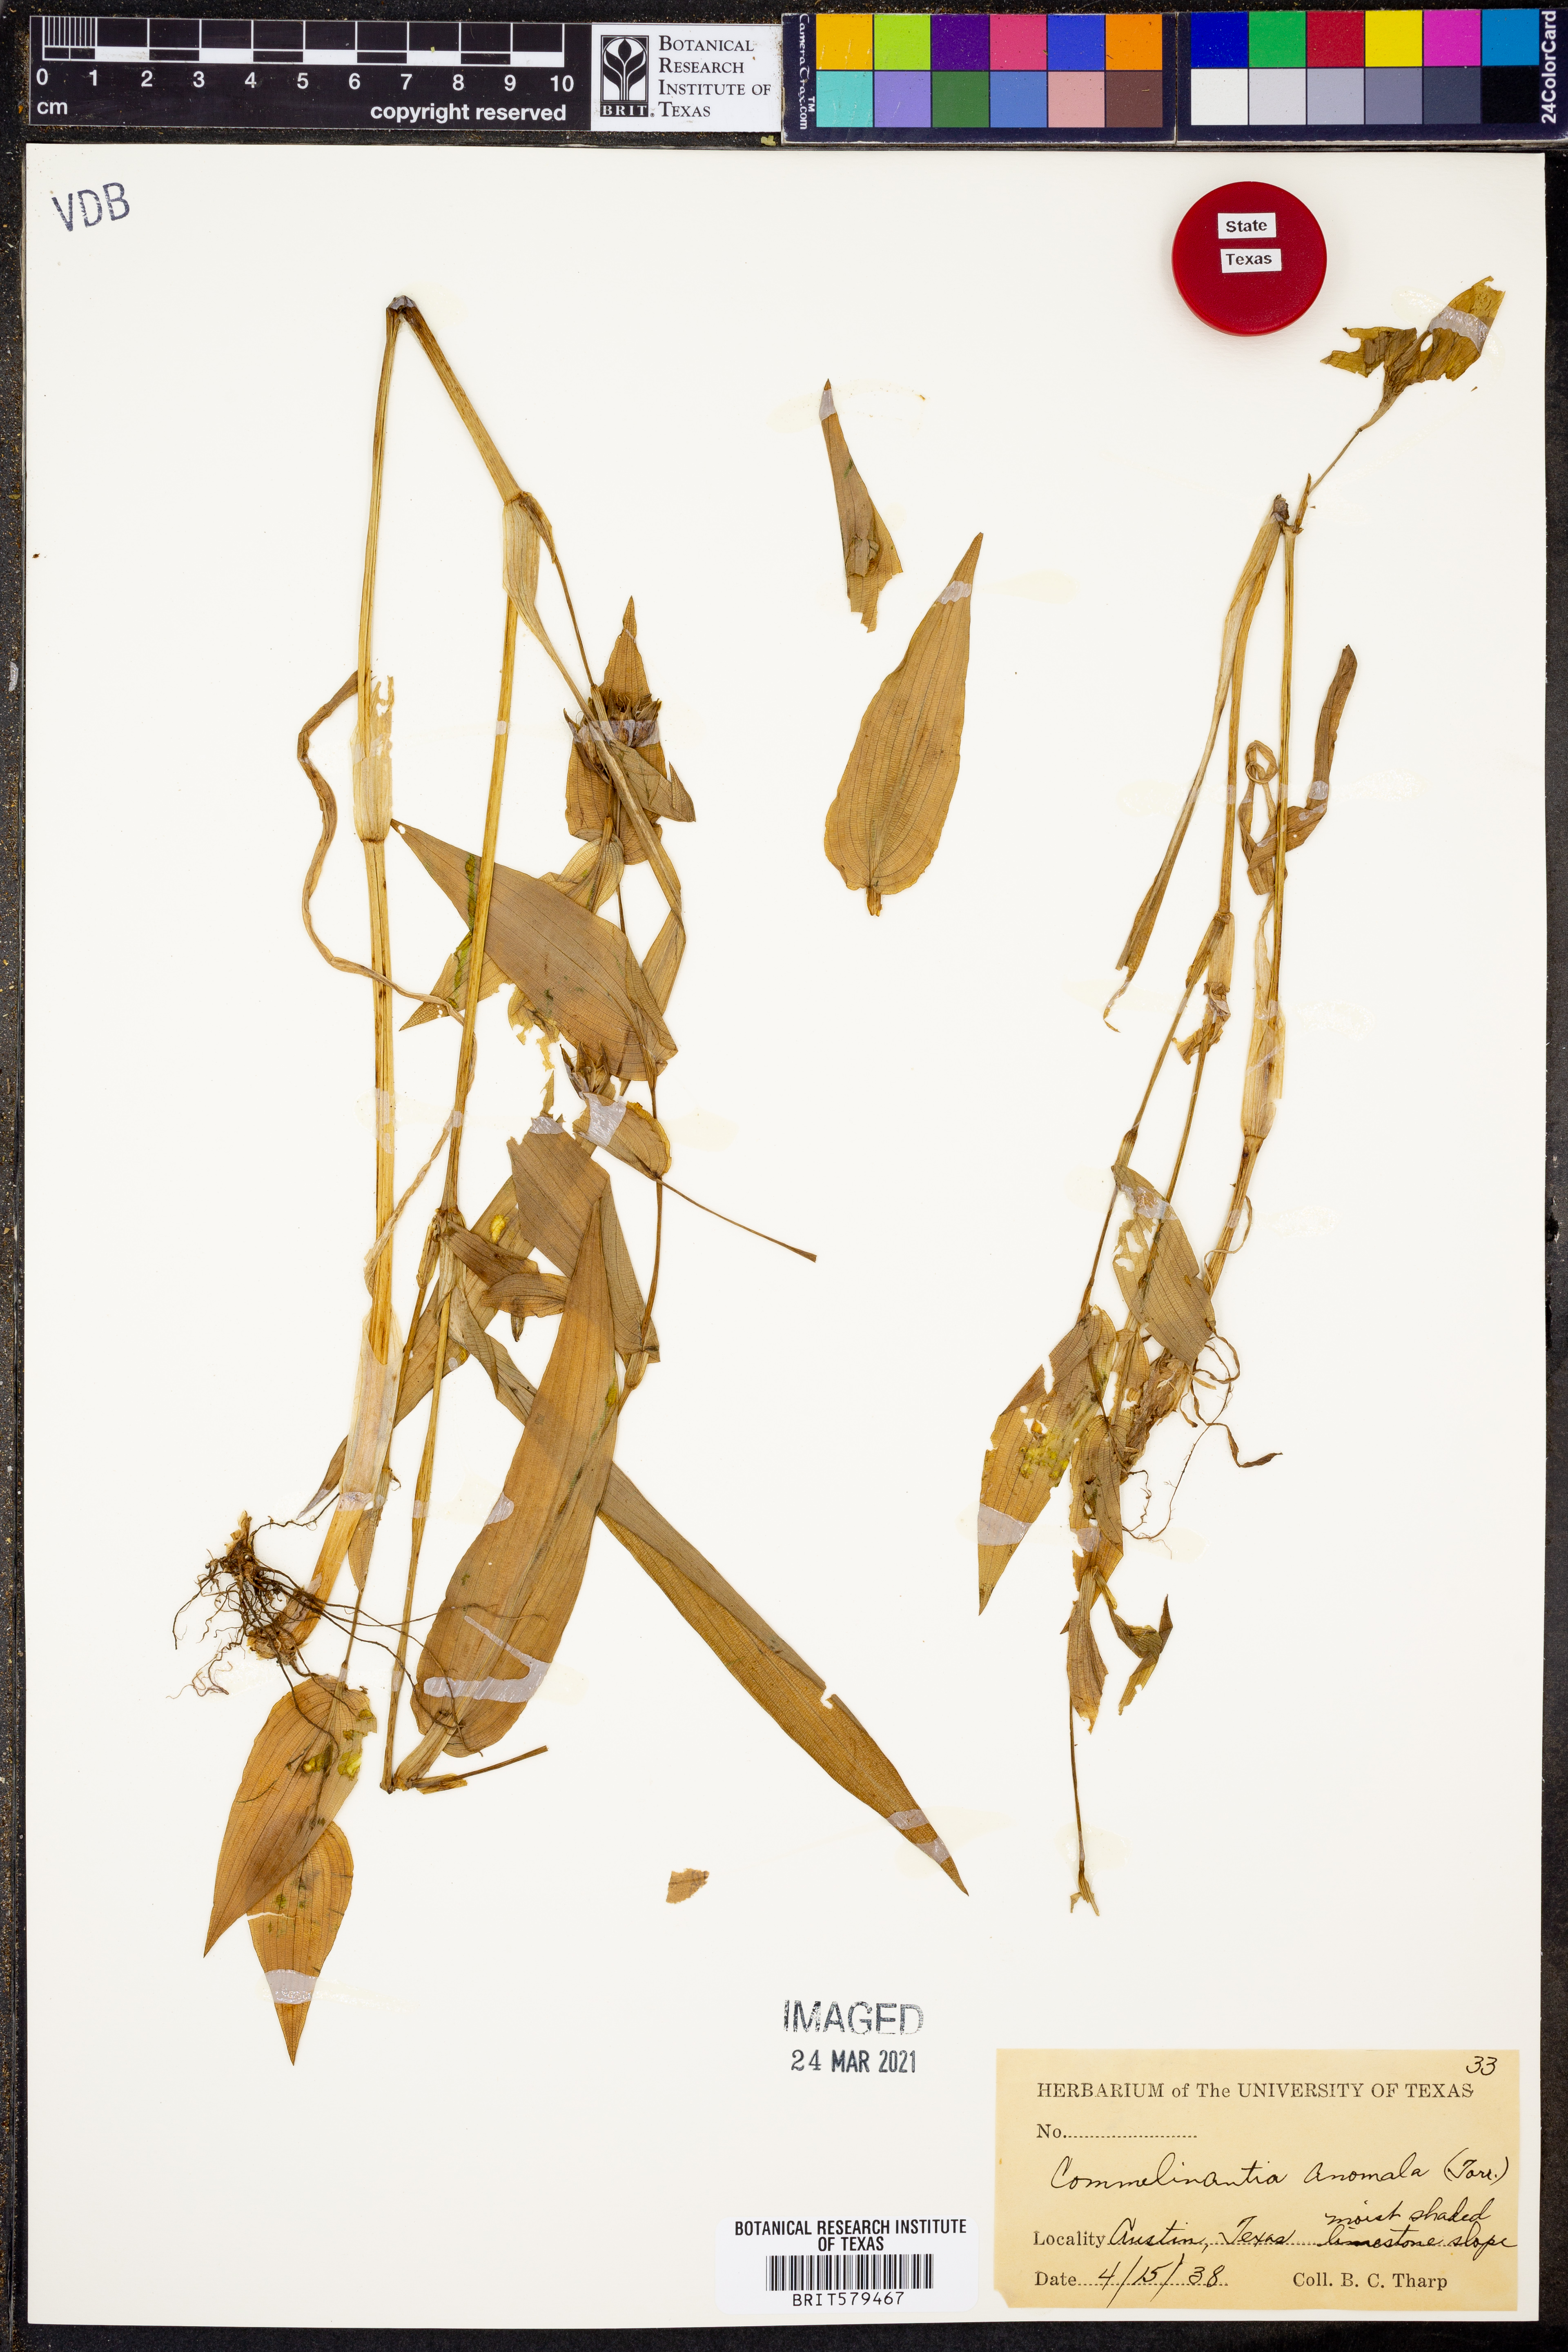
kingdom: Plantae
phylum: Tracheophyta
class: Liliopsida
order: Commelinales
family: Commelinaceae
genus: Tinantia
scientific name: Tinantia anomala
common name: False dayflower
